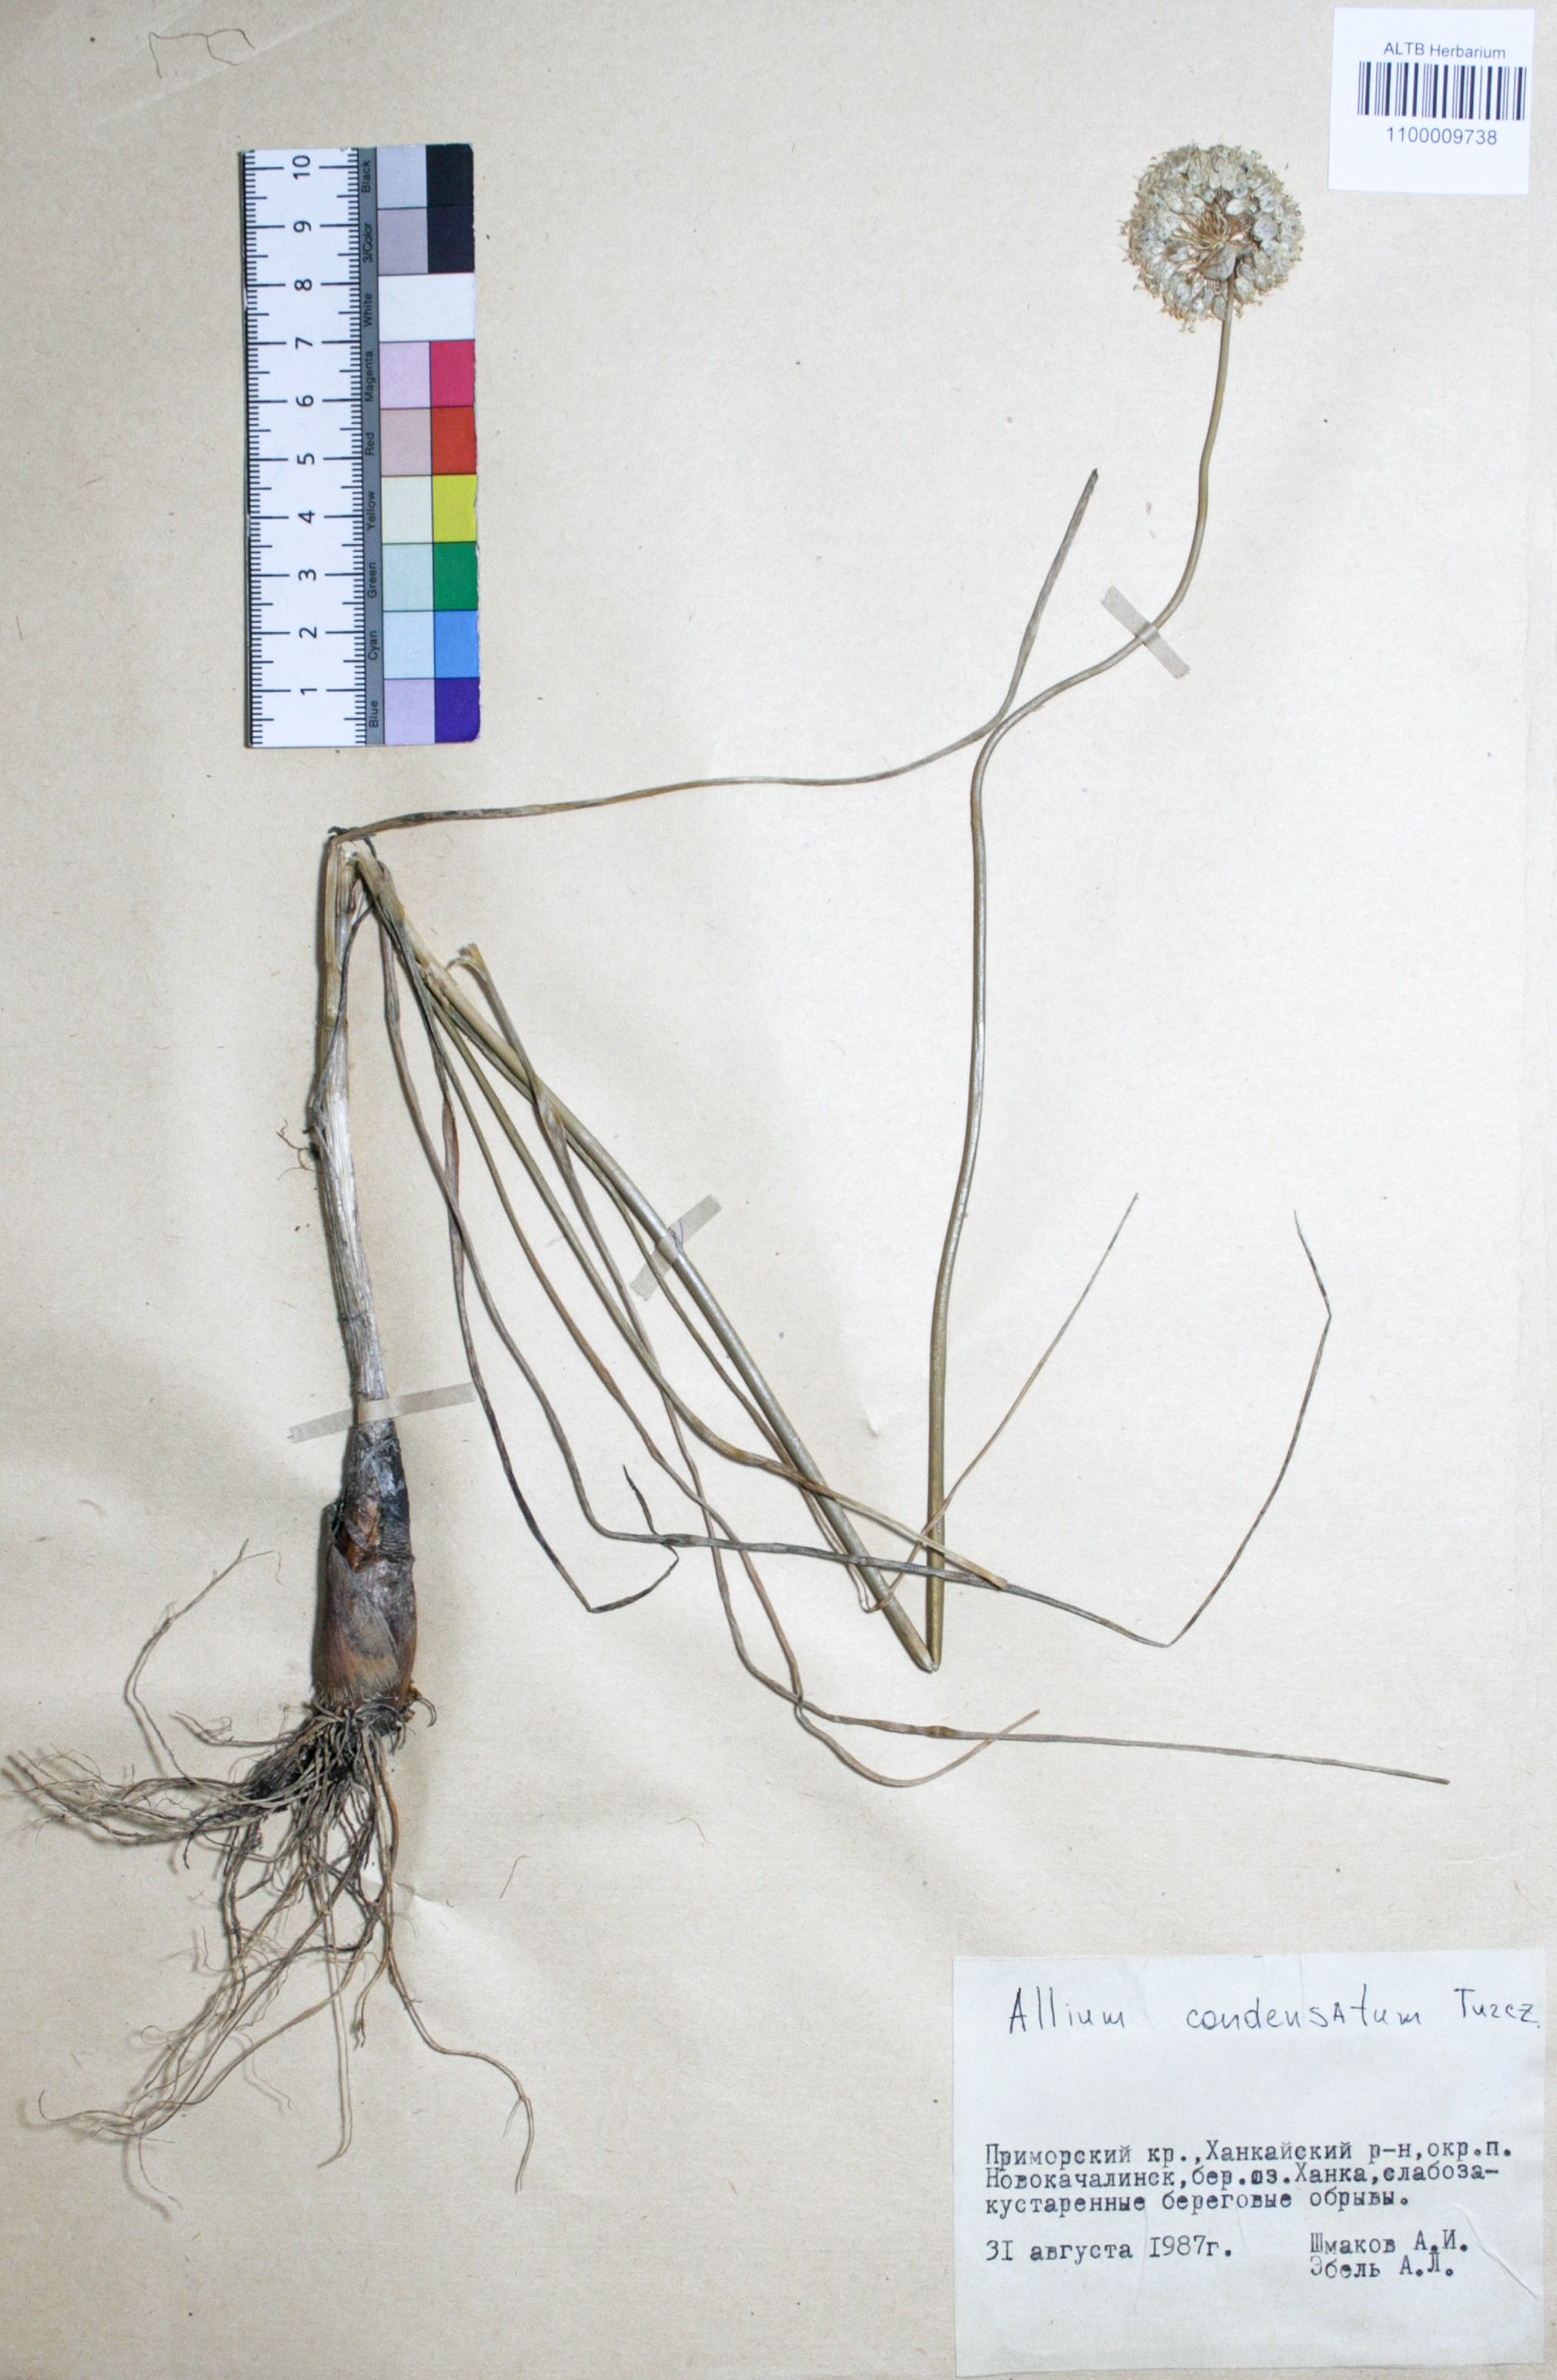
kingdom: Plantae
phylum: Tracheophyta
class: Liliopsida
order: Asparagales
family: Amaryllidaceae
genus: Allium
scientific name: Allium condensatum
